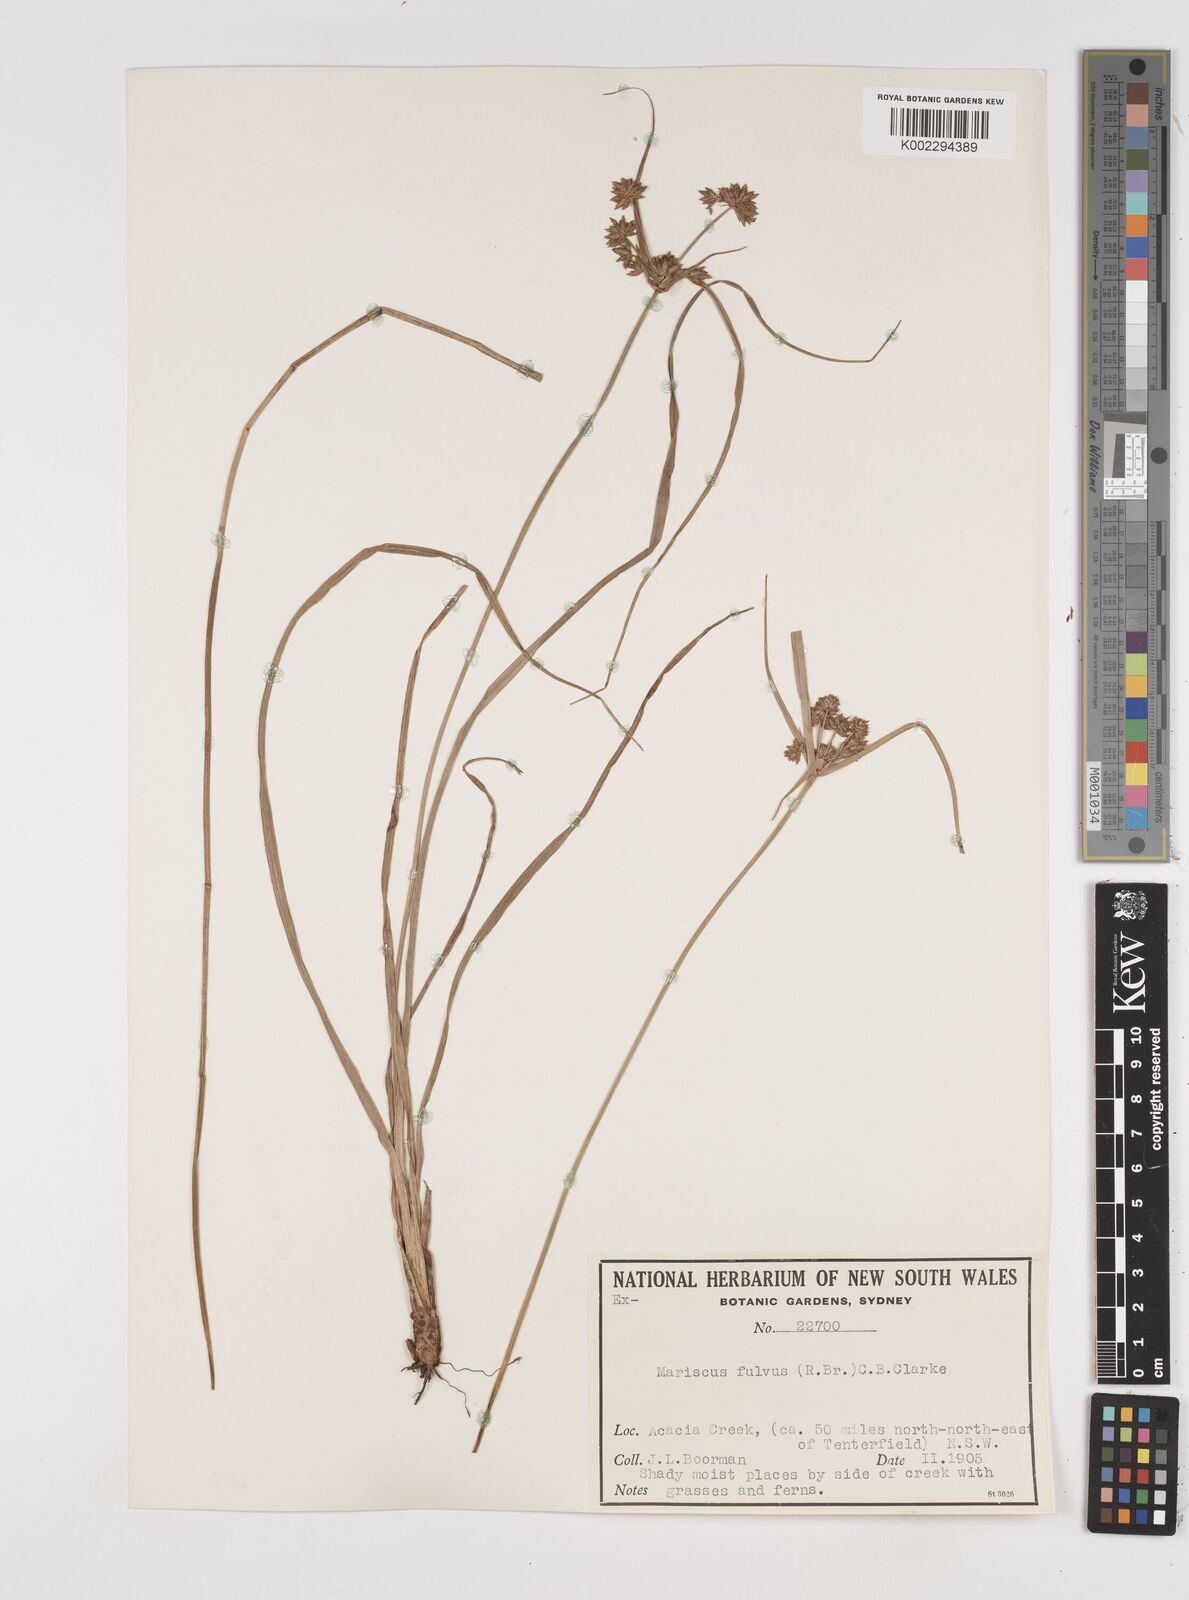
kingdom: Plantae
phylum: Tracheophyta
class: Liliopsida
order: Poales
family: Cyperaceae
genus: Cyperus
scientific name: Cyperus fulvus
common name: Sticky sedge
